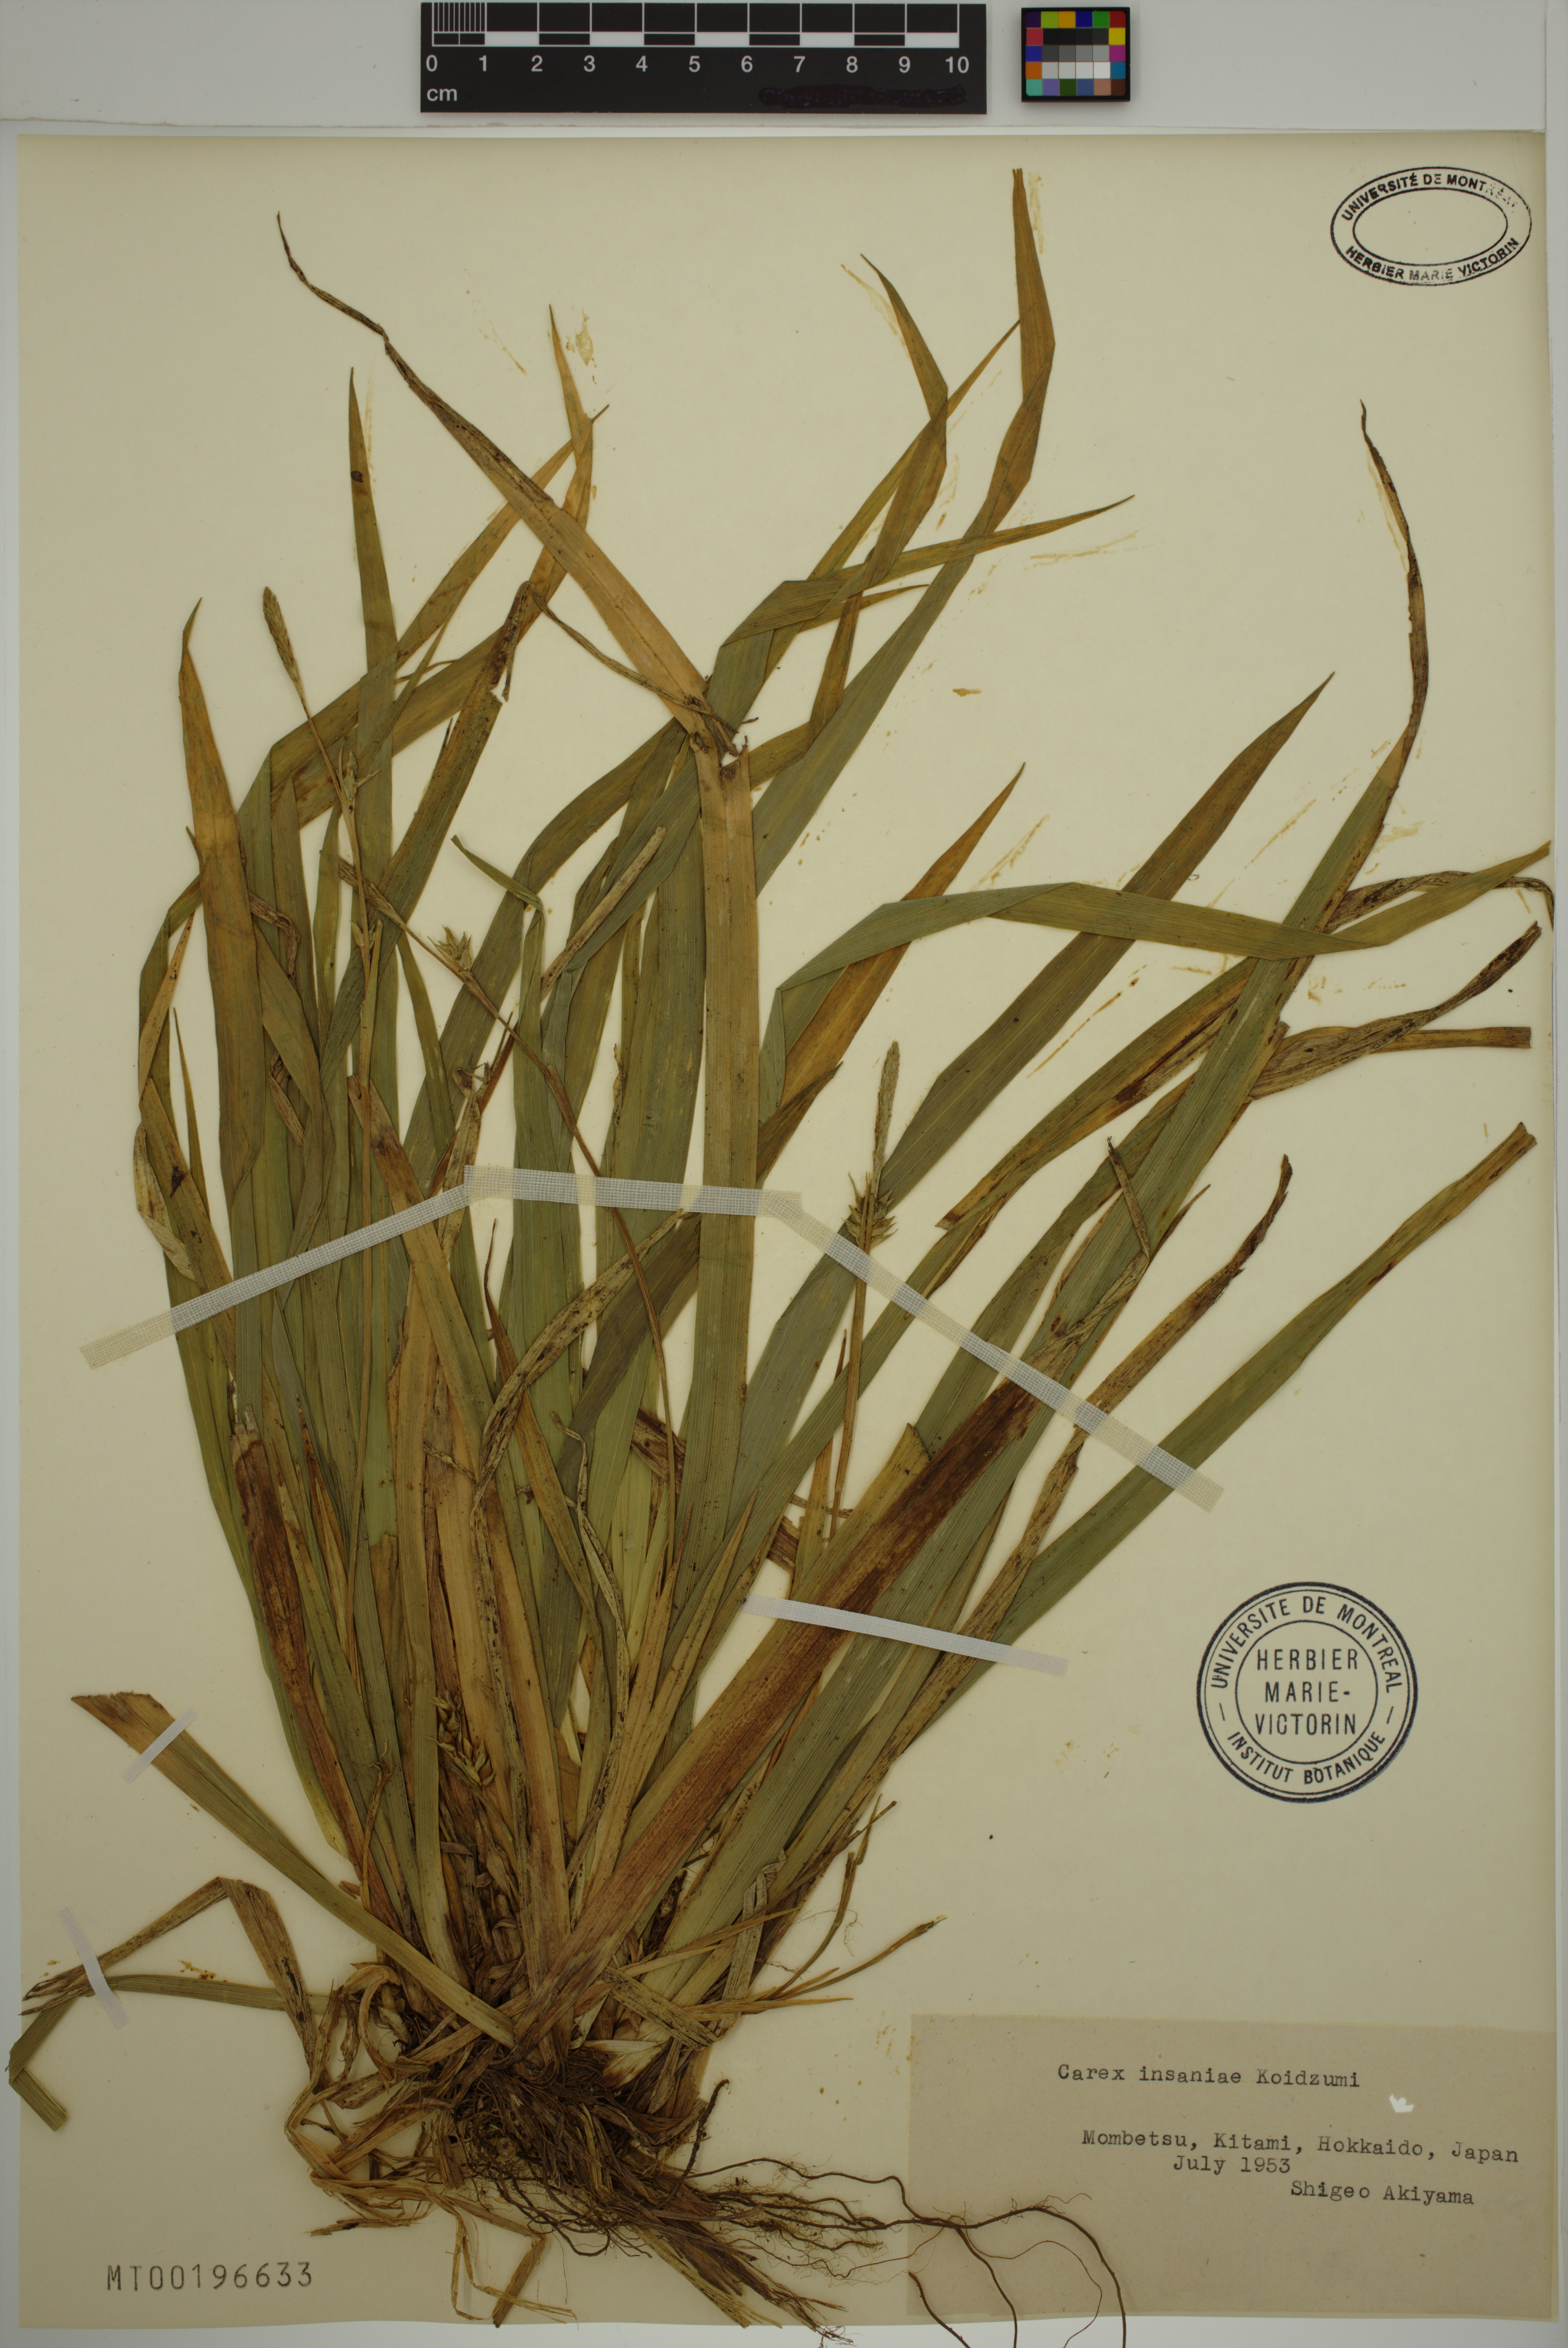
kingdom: Plantae
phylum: Tracheophyta
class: Liliopsida
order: Poales
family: Cyperaceae
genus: Carex
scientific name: Carex insaniae
